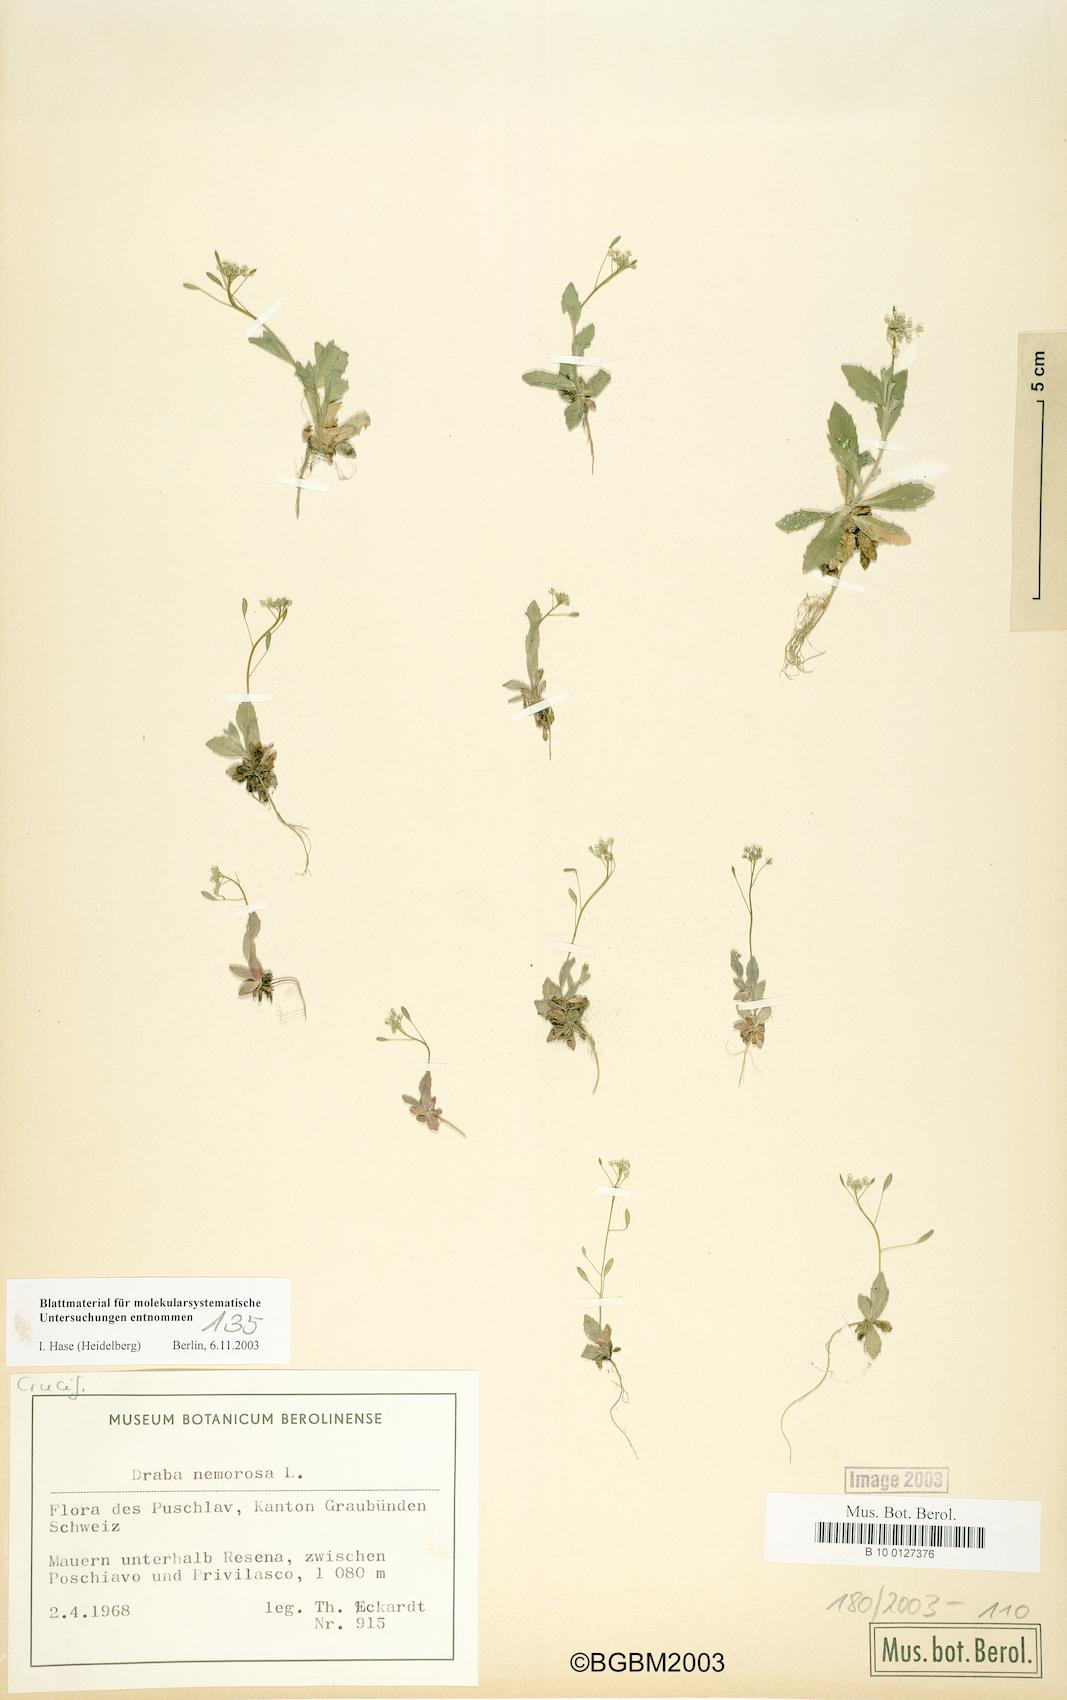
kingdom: Plantae
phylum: Tracheophyta
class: Magnoliopsida
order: Brassicales
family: Brassicaceae
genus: Draba
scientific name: Draba nemorosa
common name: Wood whitlow-grass
